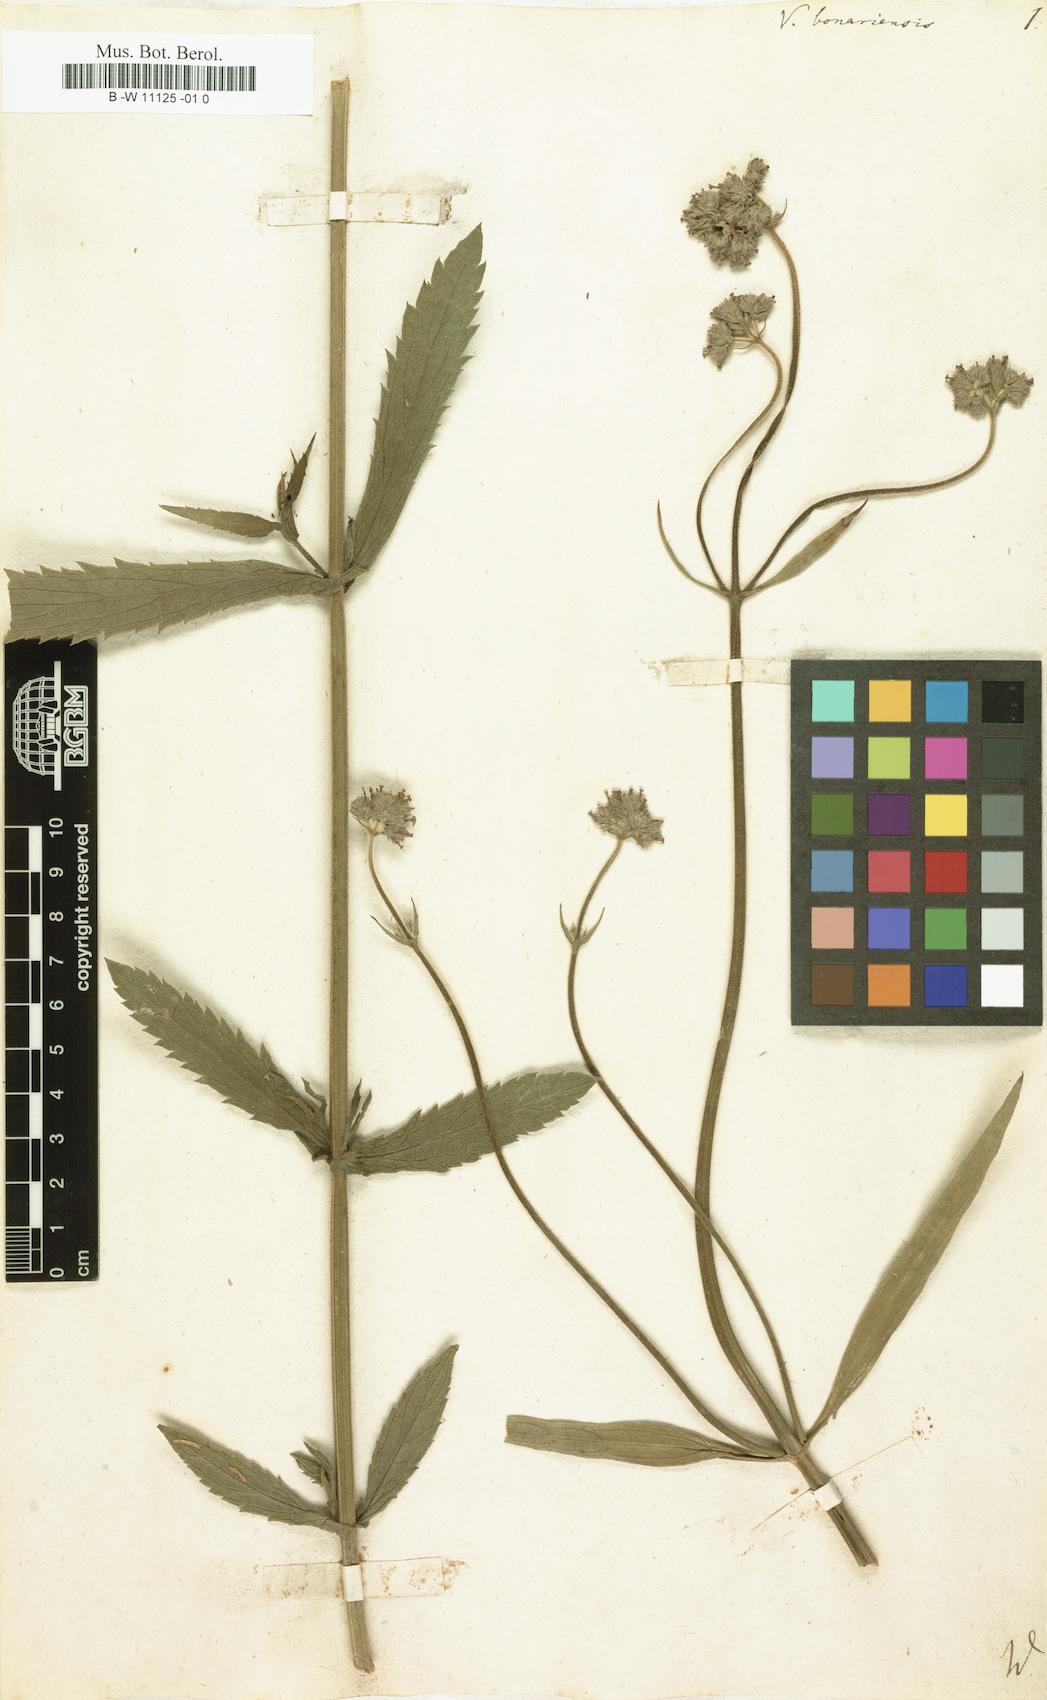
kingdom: Plantae
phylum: Tracheophyta
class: Magnoliopsida
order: Lamiales
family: Verbenaceae
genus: Verbena
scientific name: Verbena bonariensis
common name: Purpletop vervain
